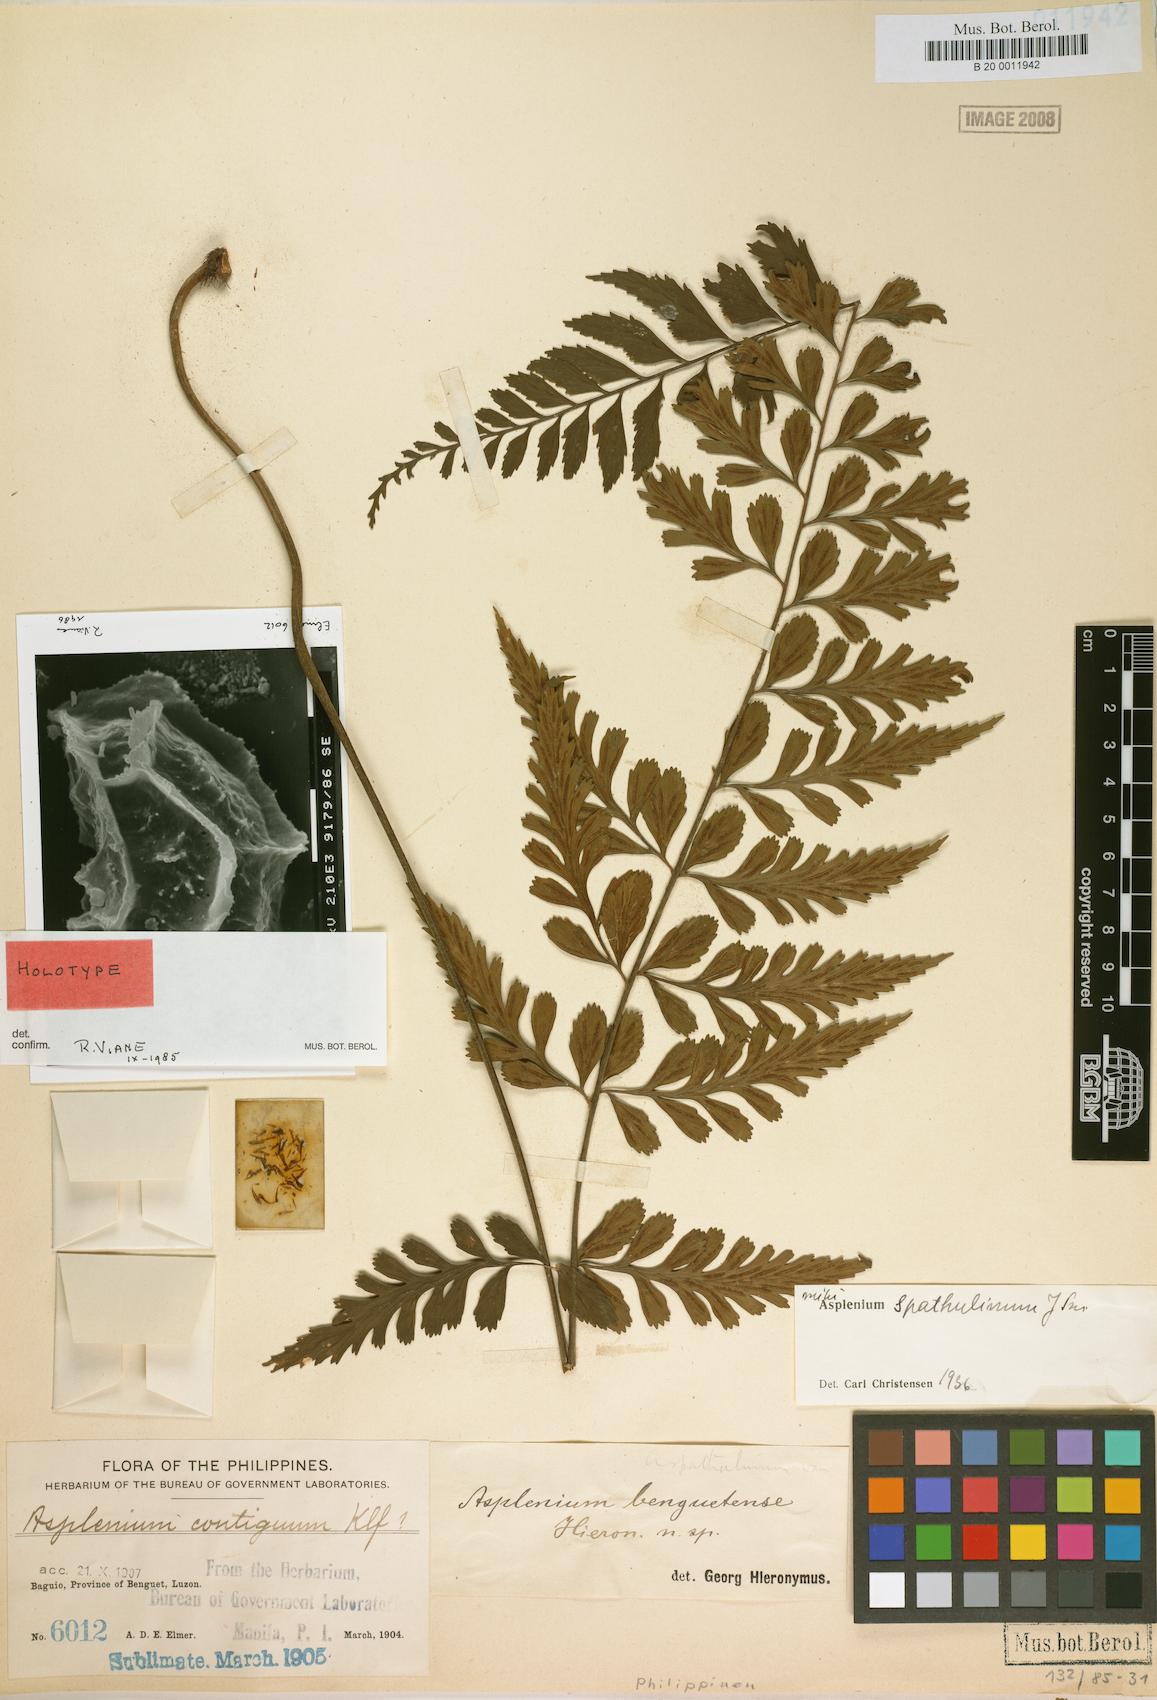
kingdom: Plantae
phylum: Tracheophyta
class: Polypodiopsida
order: Polypodiales
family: Aspleniaceae
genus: Asplenium
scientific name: Asplenium benguetense
